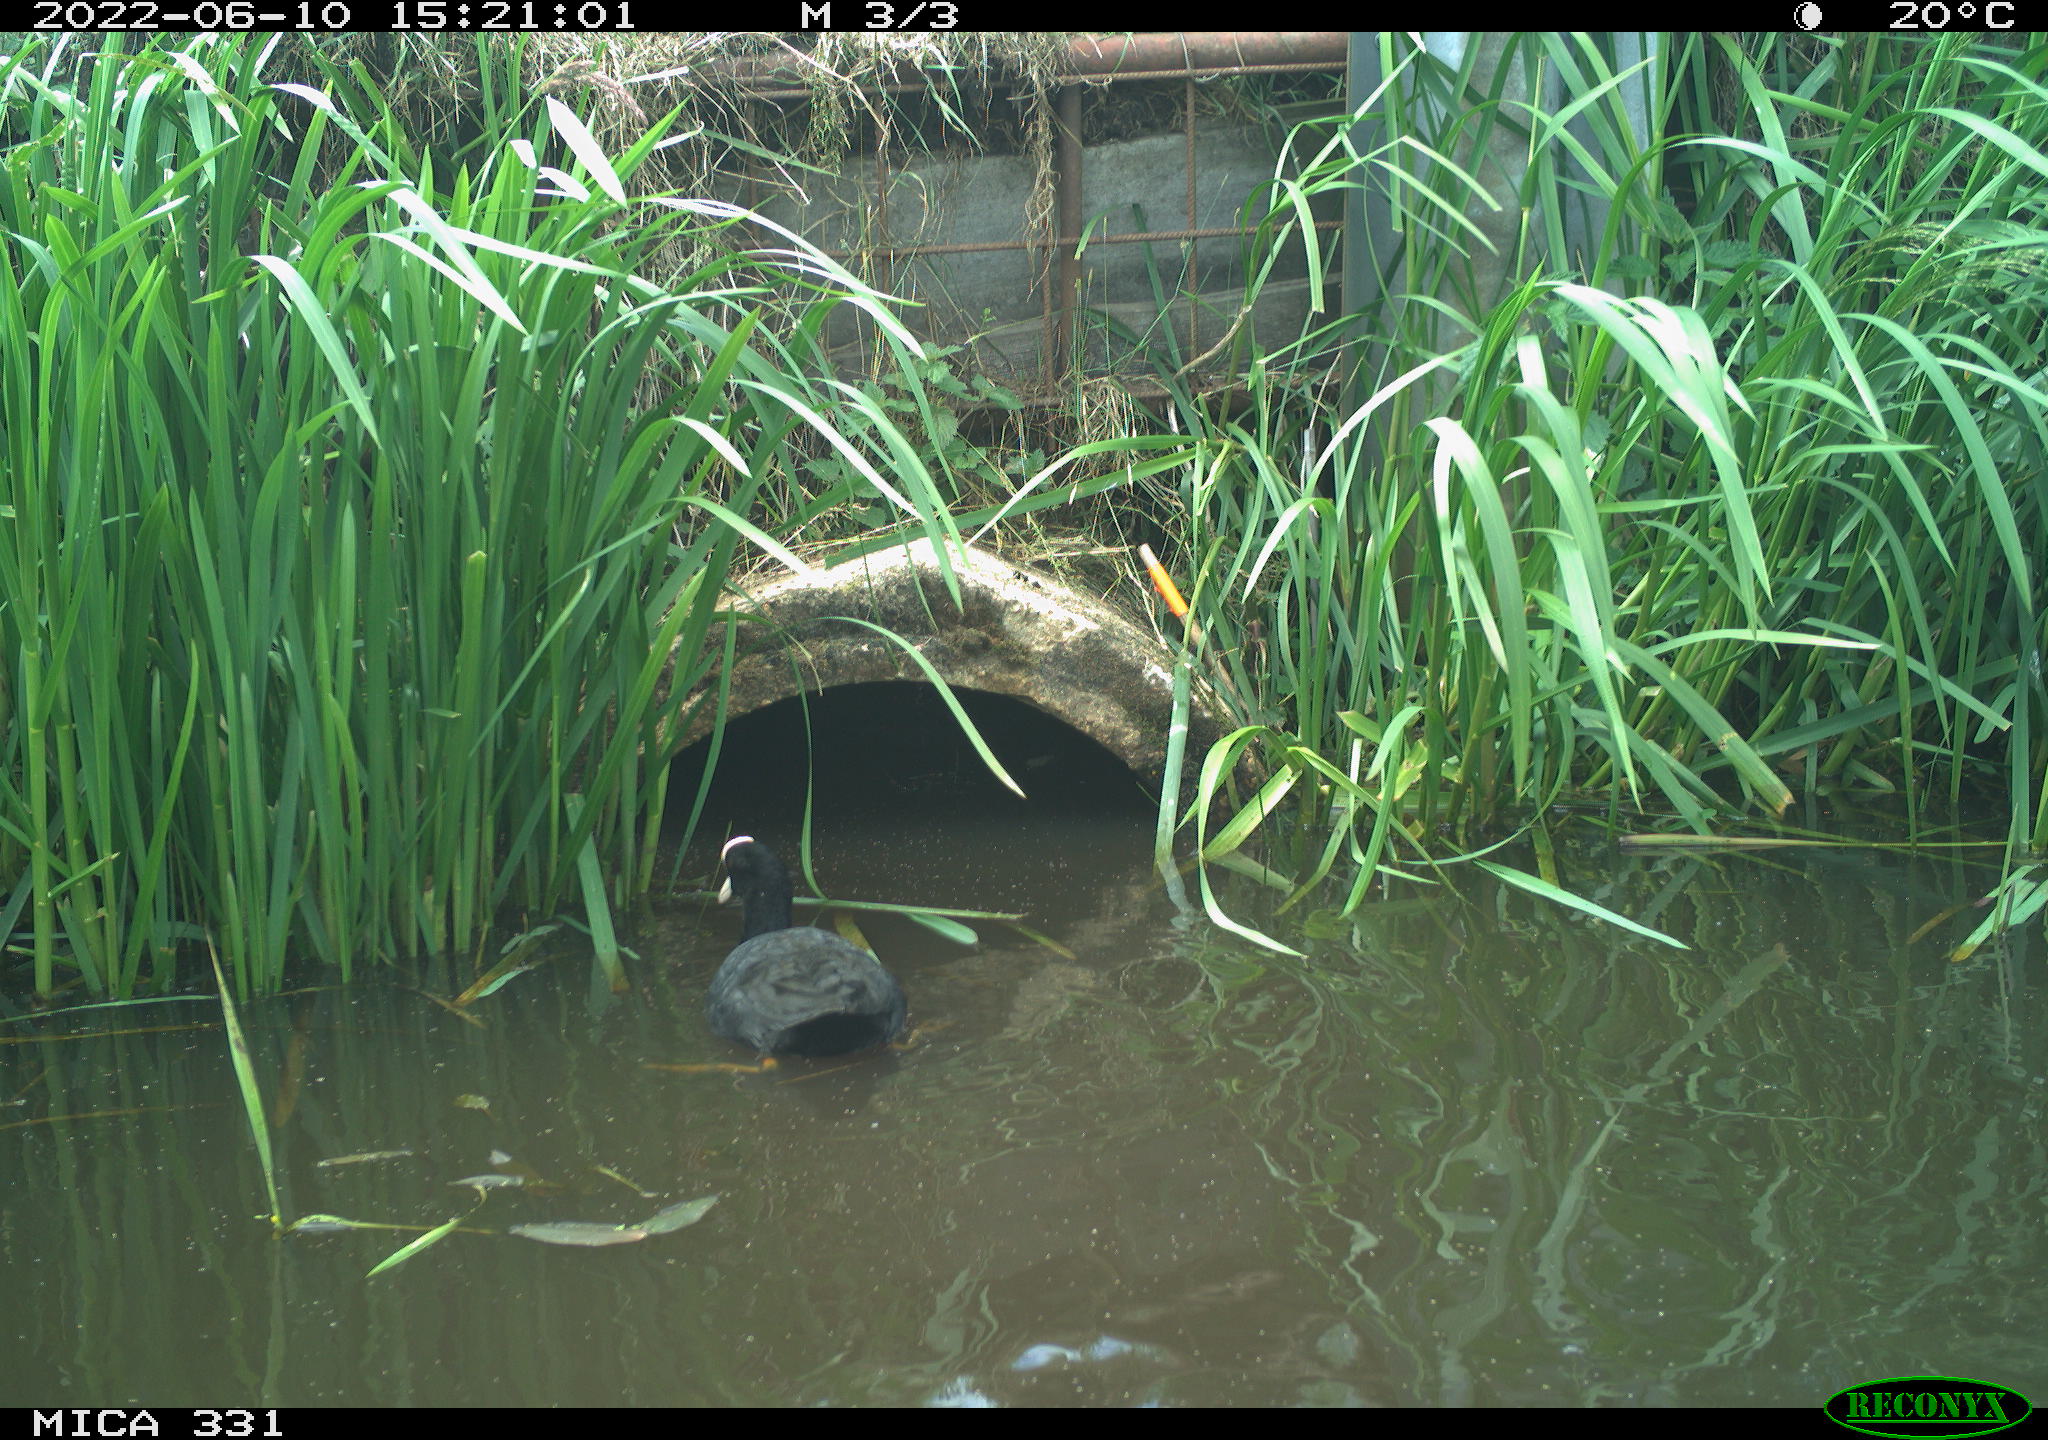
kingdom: Animalia
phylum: Chordata
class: Aves
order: Gruiformes
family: Rallidae
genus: Fulica
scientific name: Fulica atra
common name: Eurasian coot
